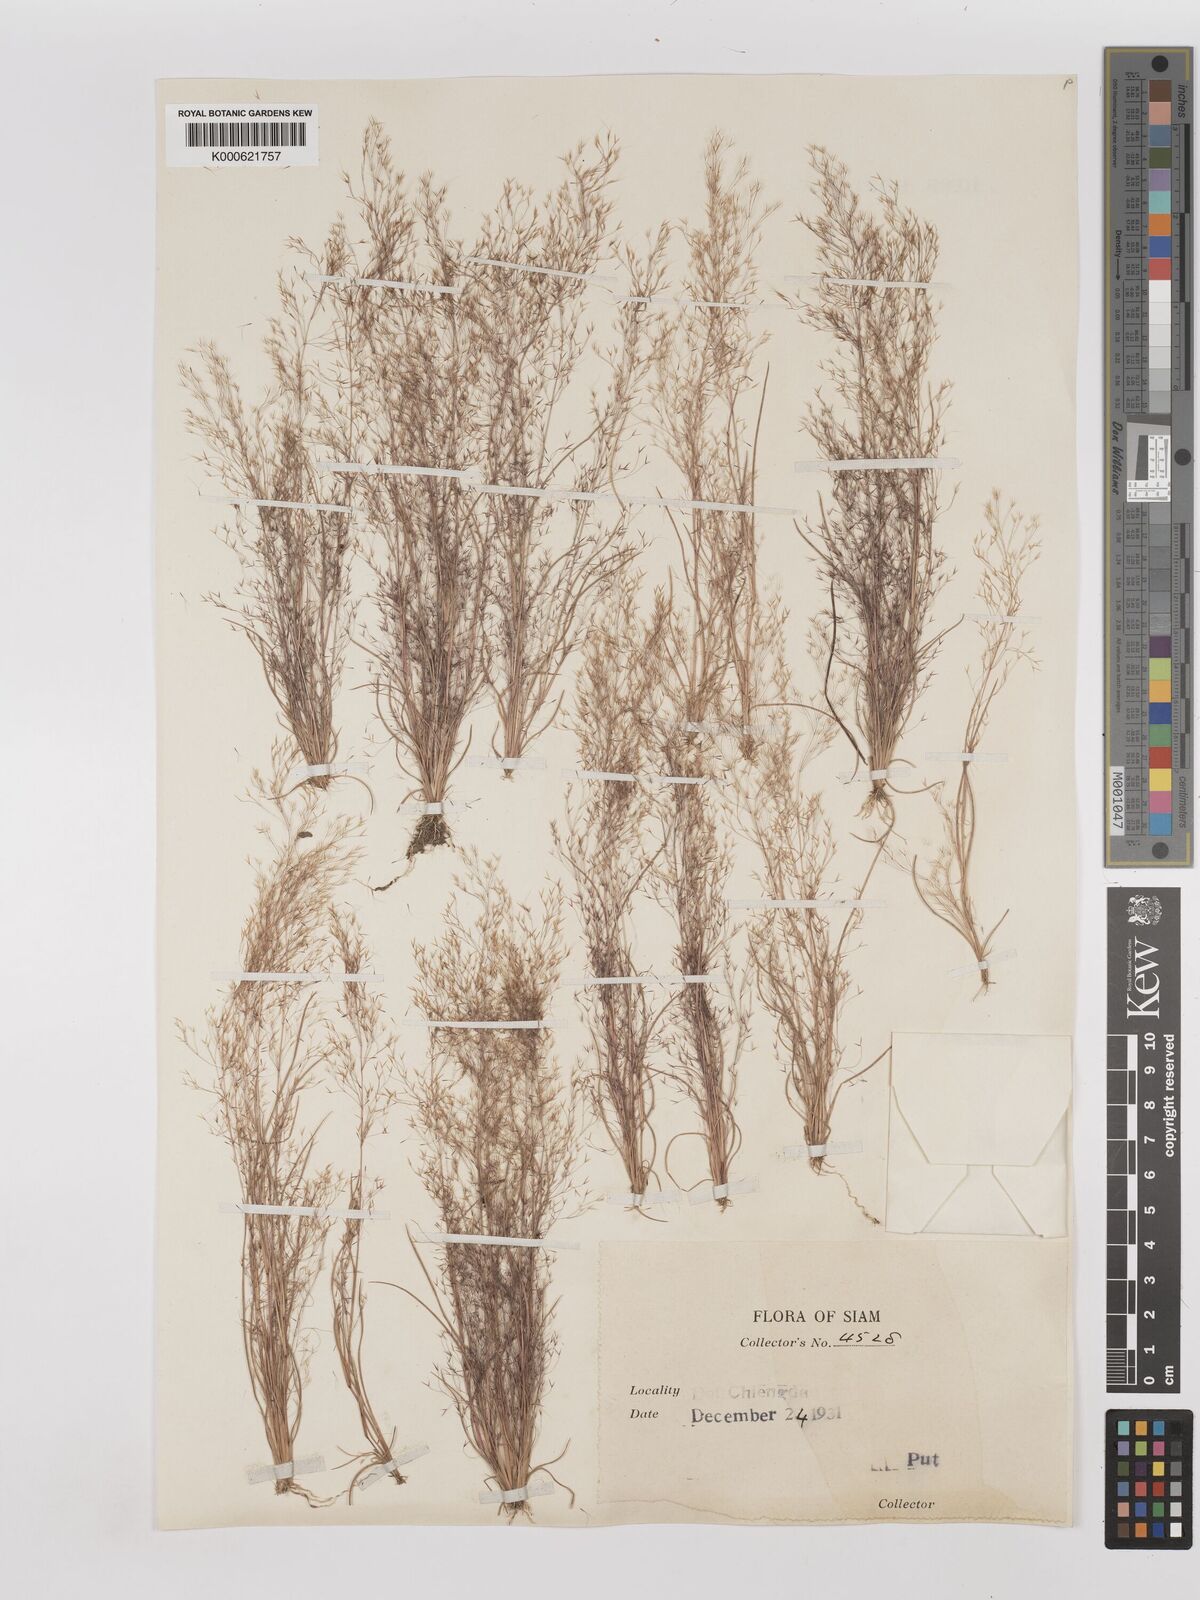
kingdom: Plantae
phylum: Tracheophyta
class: Liliopsida
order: Poales
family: Poaceae
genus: Aristida
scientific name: Aristida cumingiana
